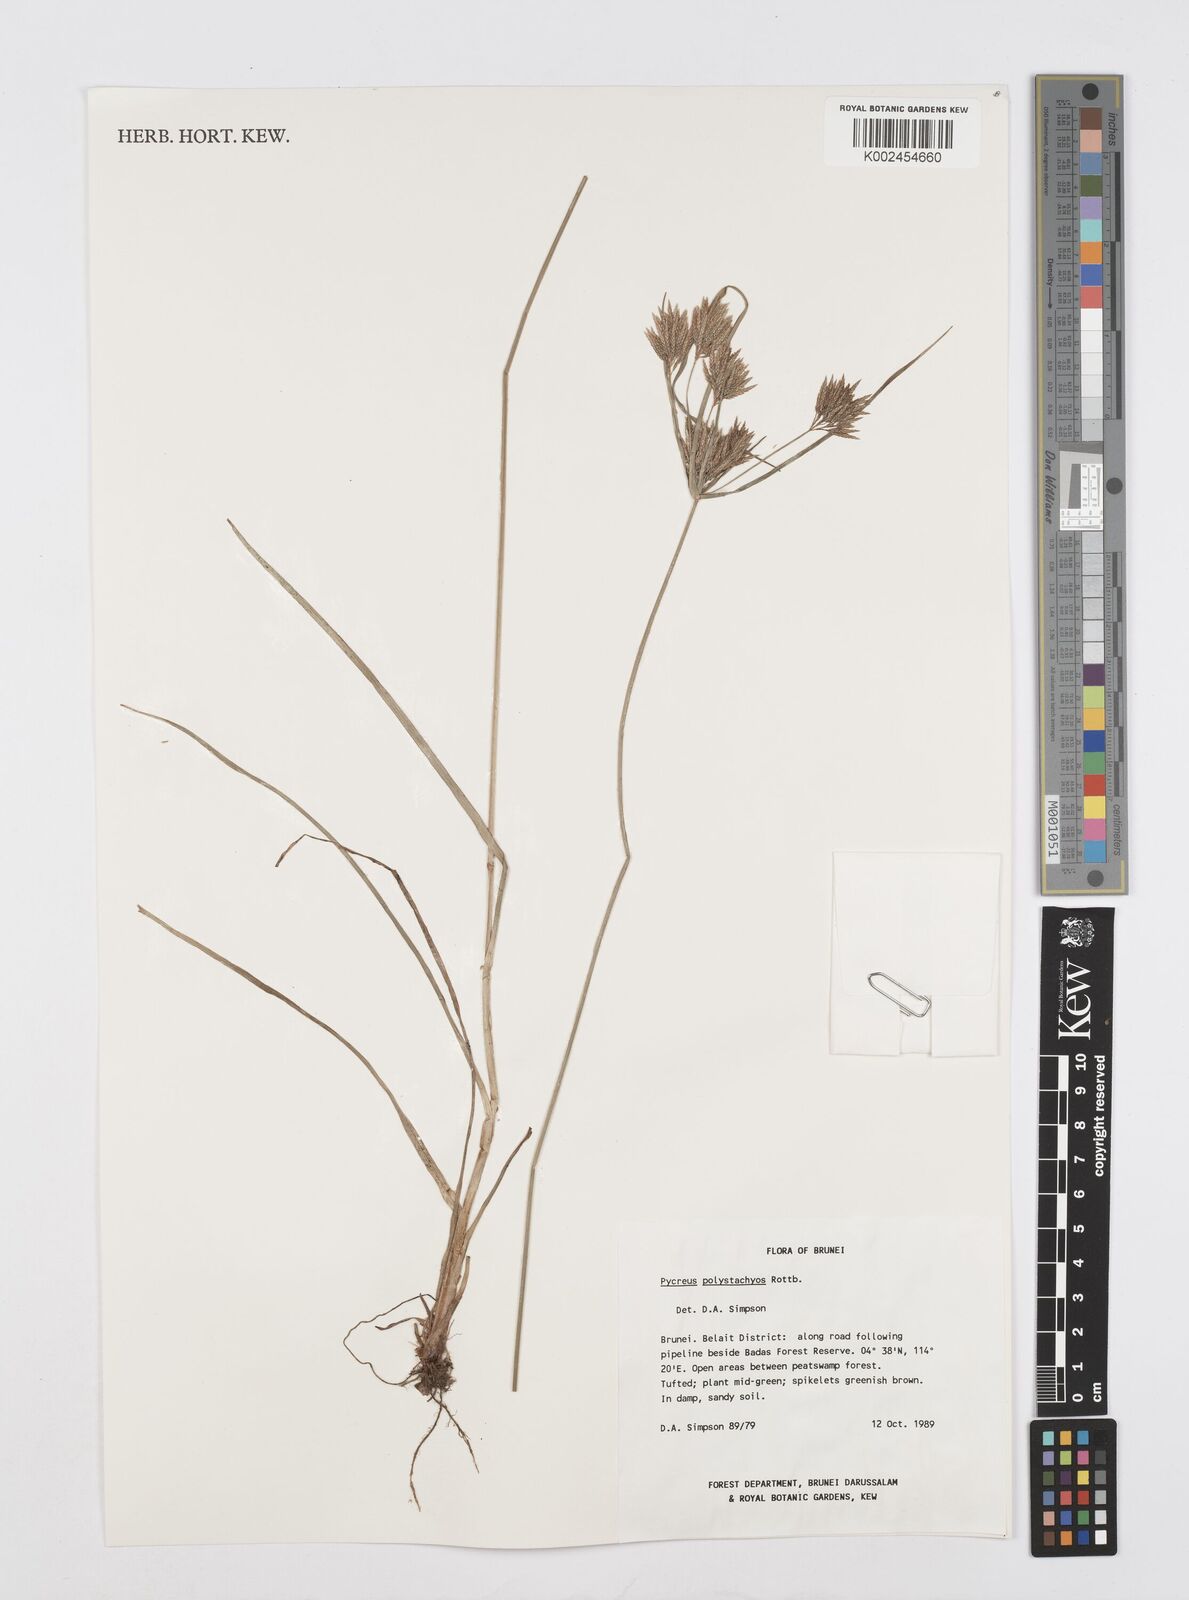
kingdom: Plantae
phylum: Tracheophyta
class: Liliopsida
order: Poales
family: Cyperaceae
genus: Cyperus
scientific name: Cyperus polystachyos
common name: Bunchy flat sedge
